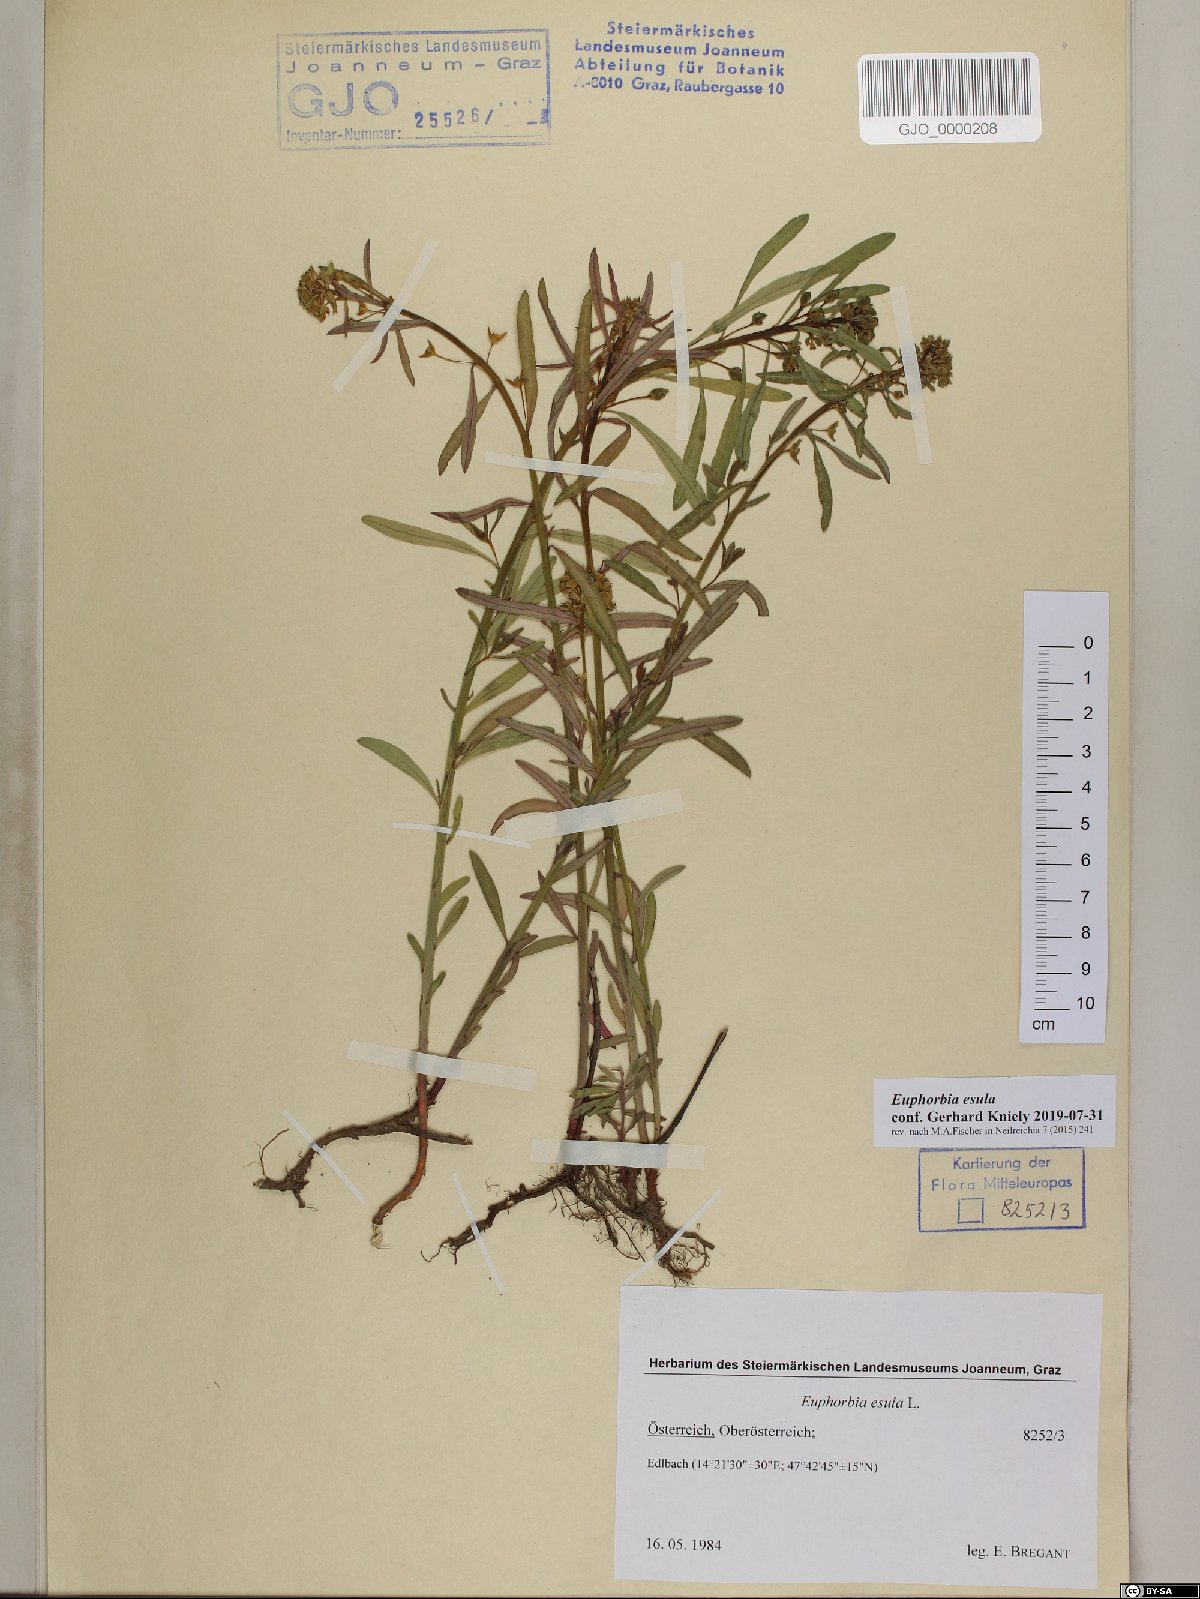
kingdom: Plantae
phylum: Tracheophyta
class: Magnoliopsida
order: Malpighiales
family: Euphorbiaceae
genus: Euphorbia
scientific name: Euphorbia esula
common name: Leafy spurge
